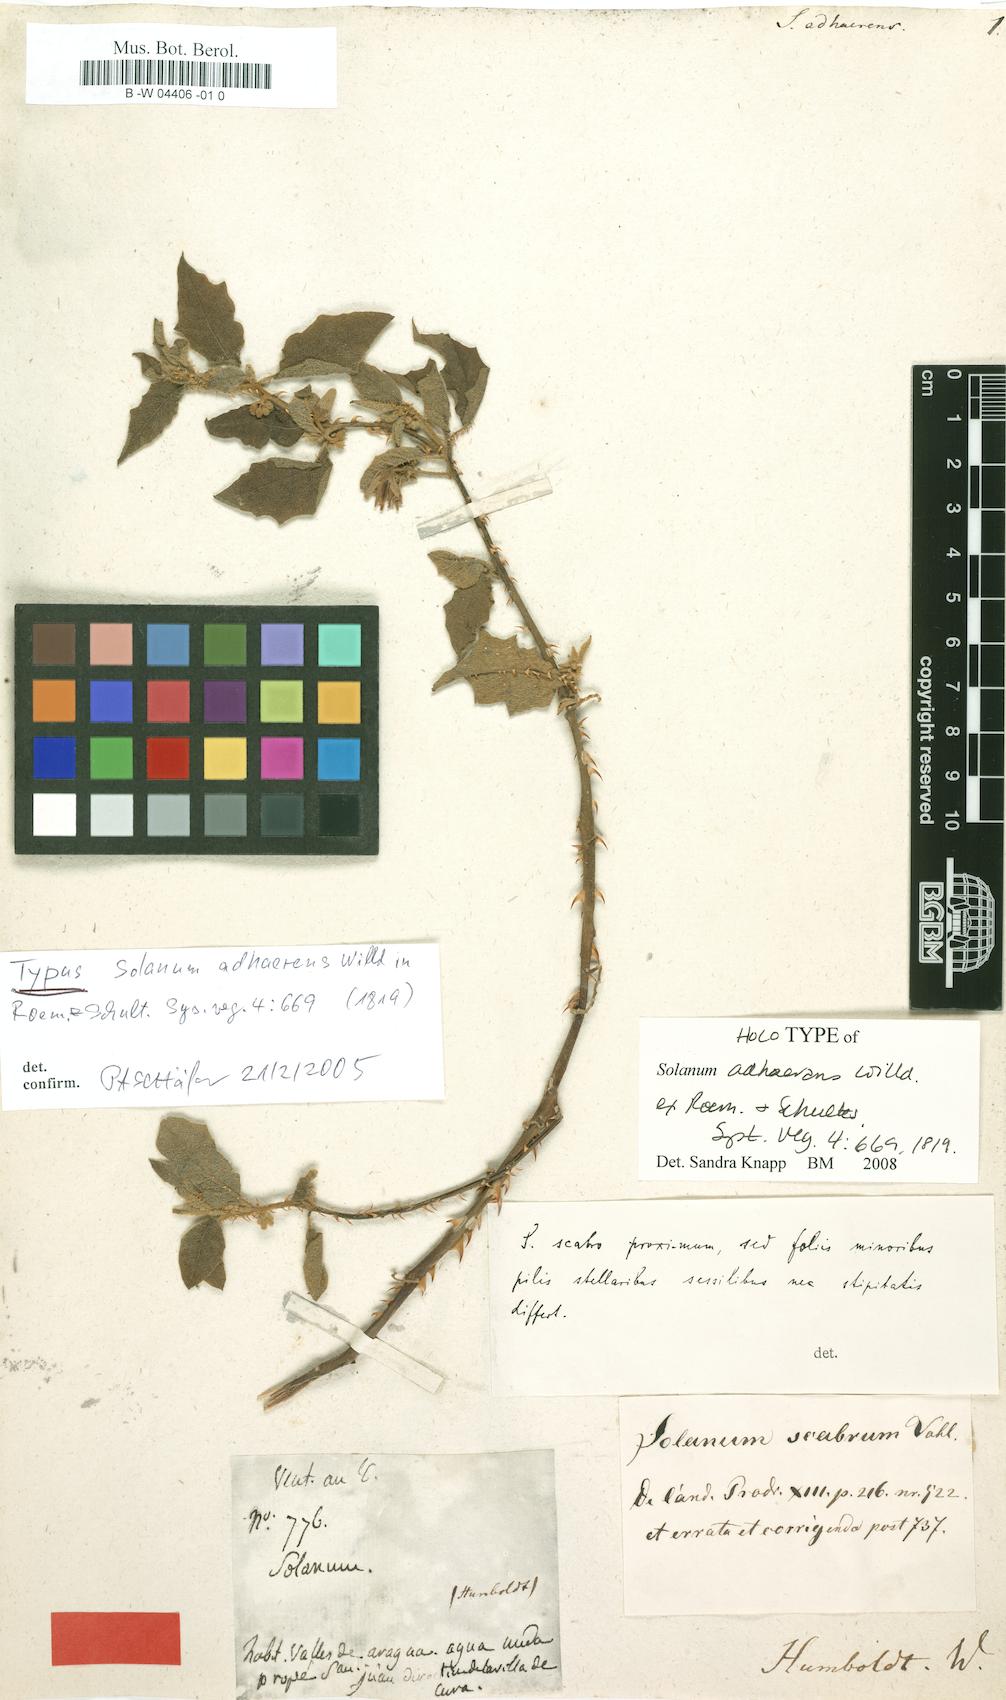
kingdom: Plantae
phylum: Tracheophyta
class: Magnoliopsida
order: Solanales
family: Solanaceae
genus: Solanum
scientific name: Solanum volubile
